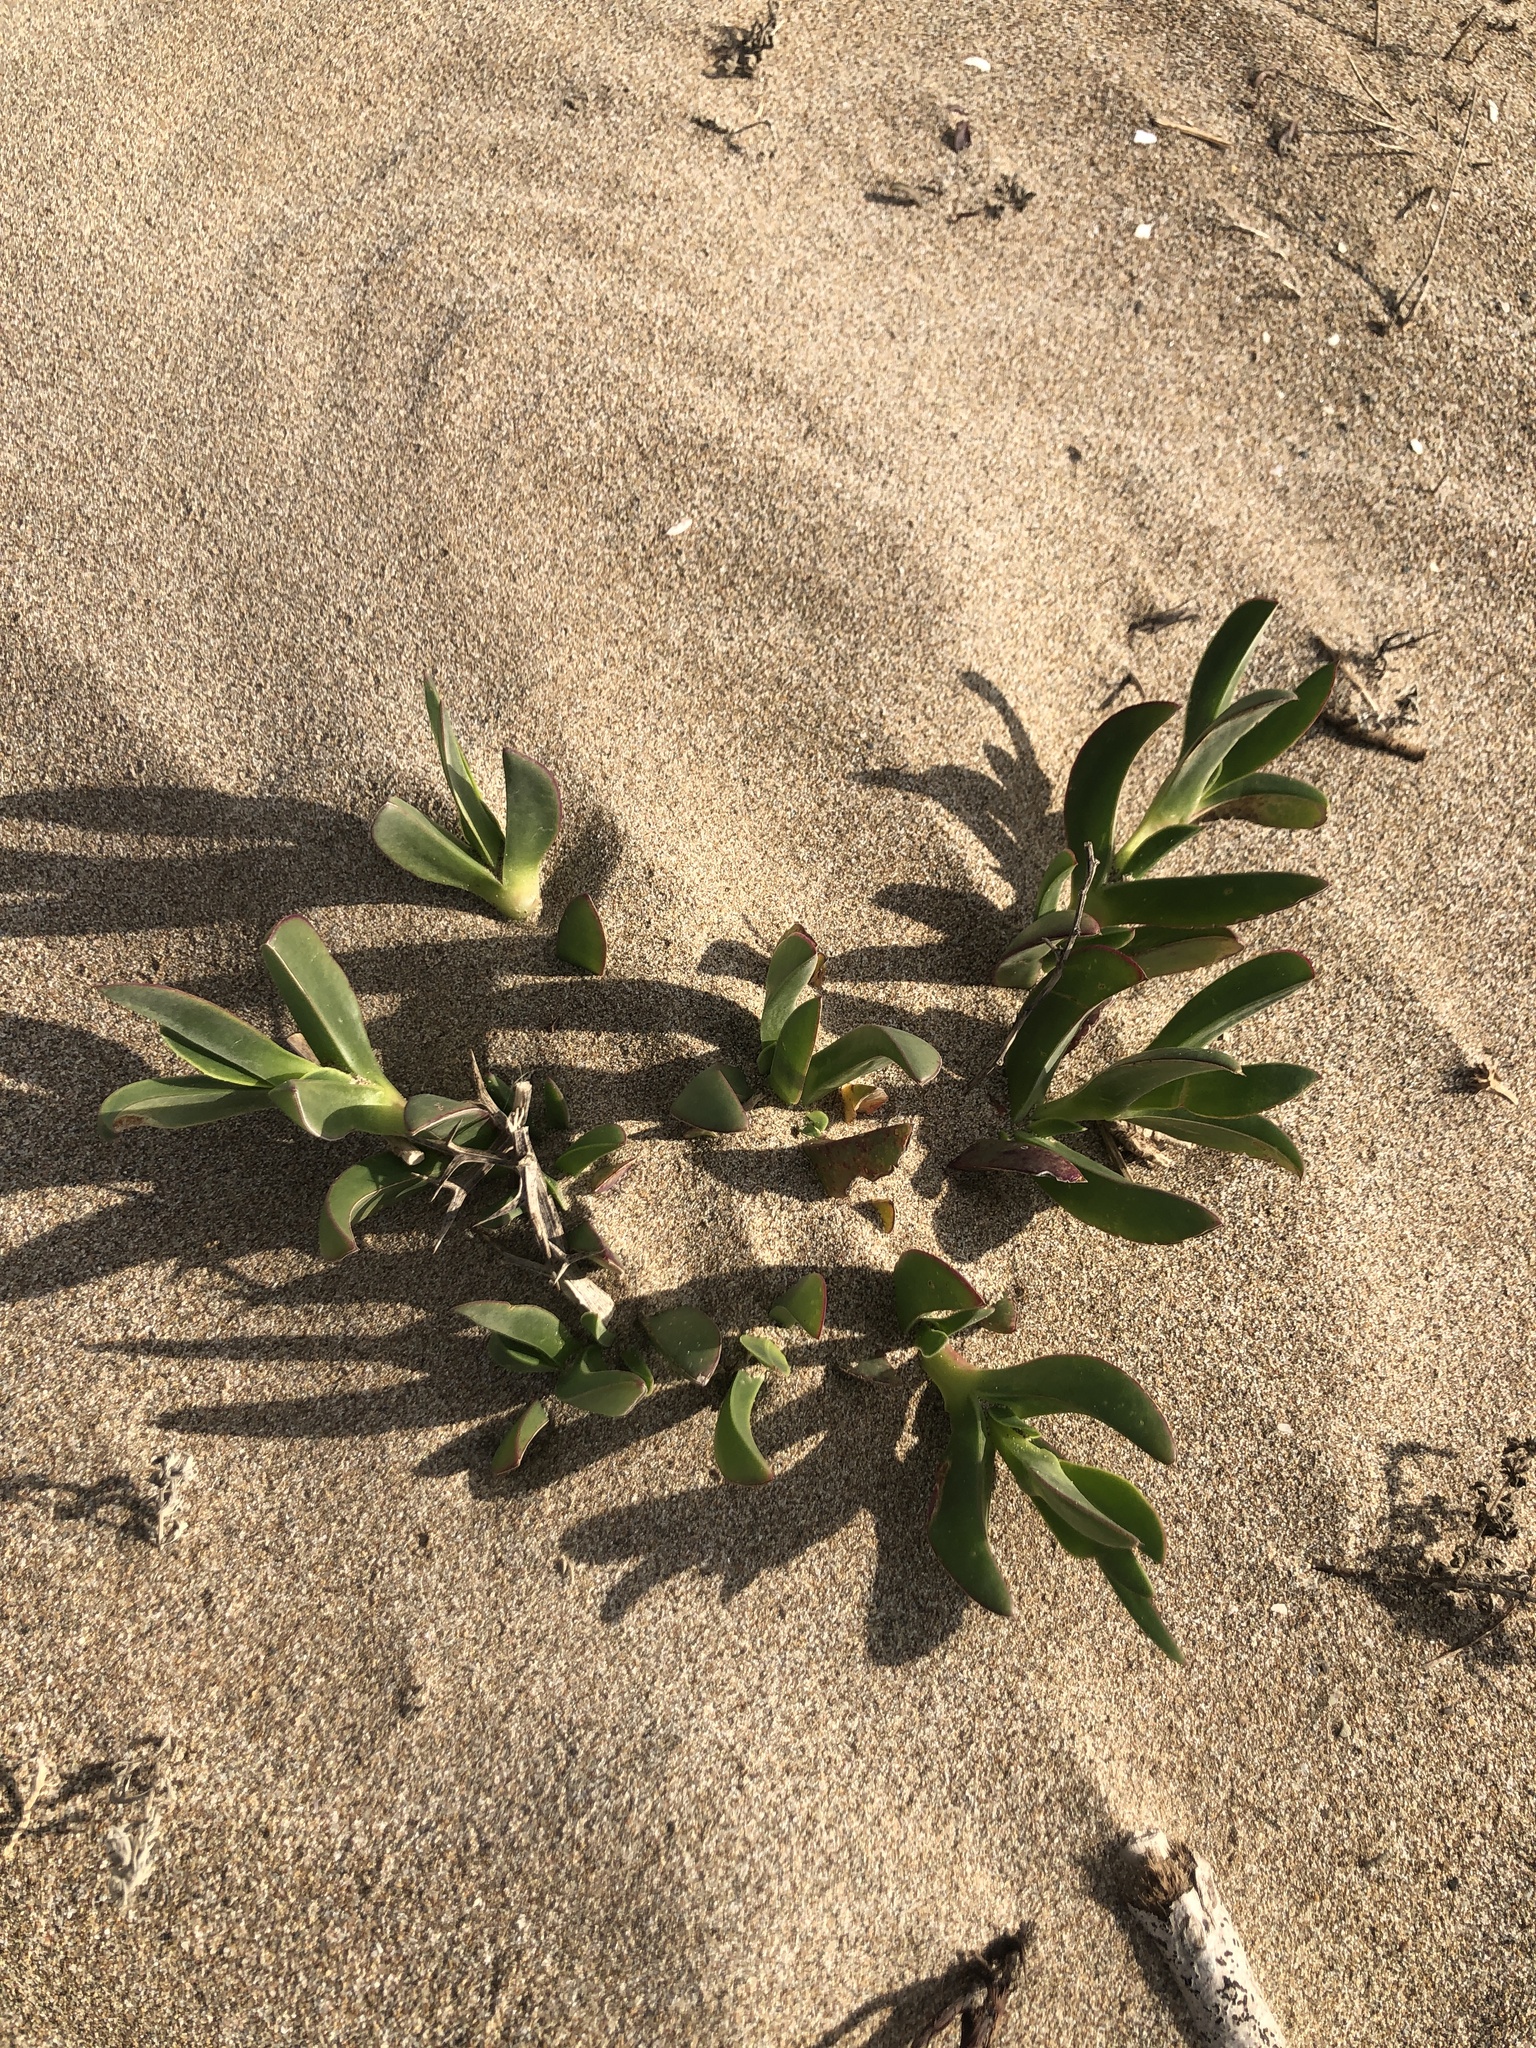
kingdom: Plantae
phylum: Tracheophyta
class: Magnoliopsida
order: Caryophyllales
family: Aizoaceae
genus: Carpobrotus
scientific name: Carpobrotus edulis
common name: Hottentot-fig
